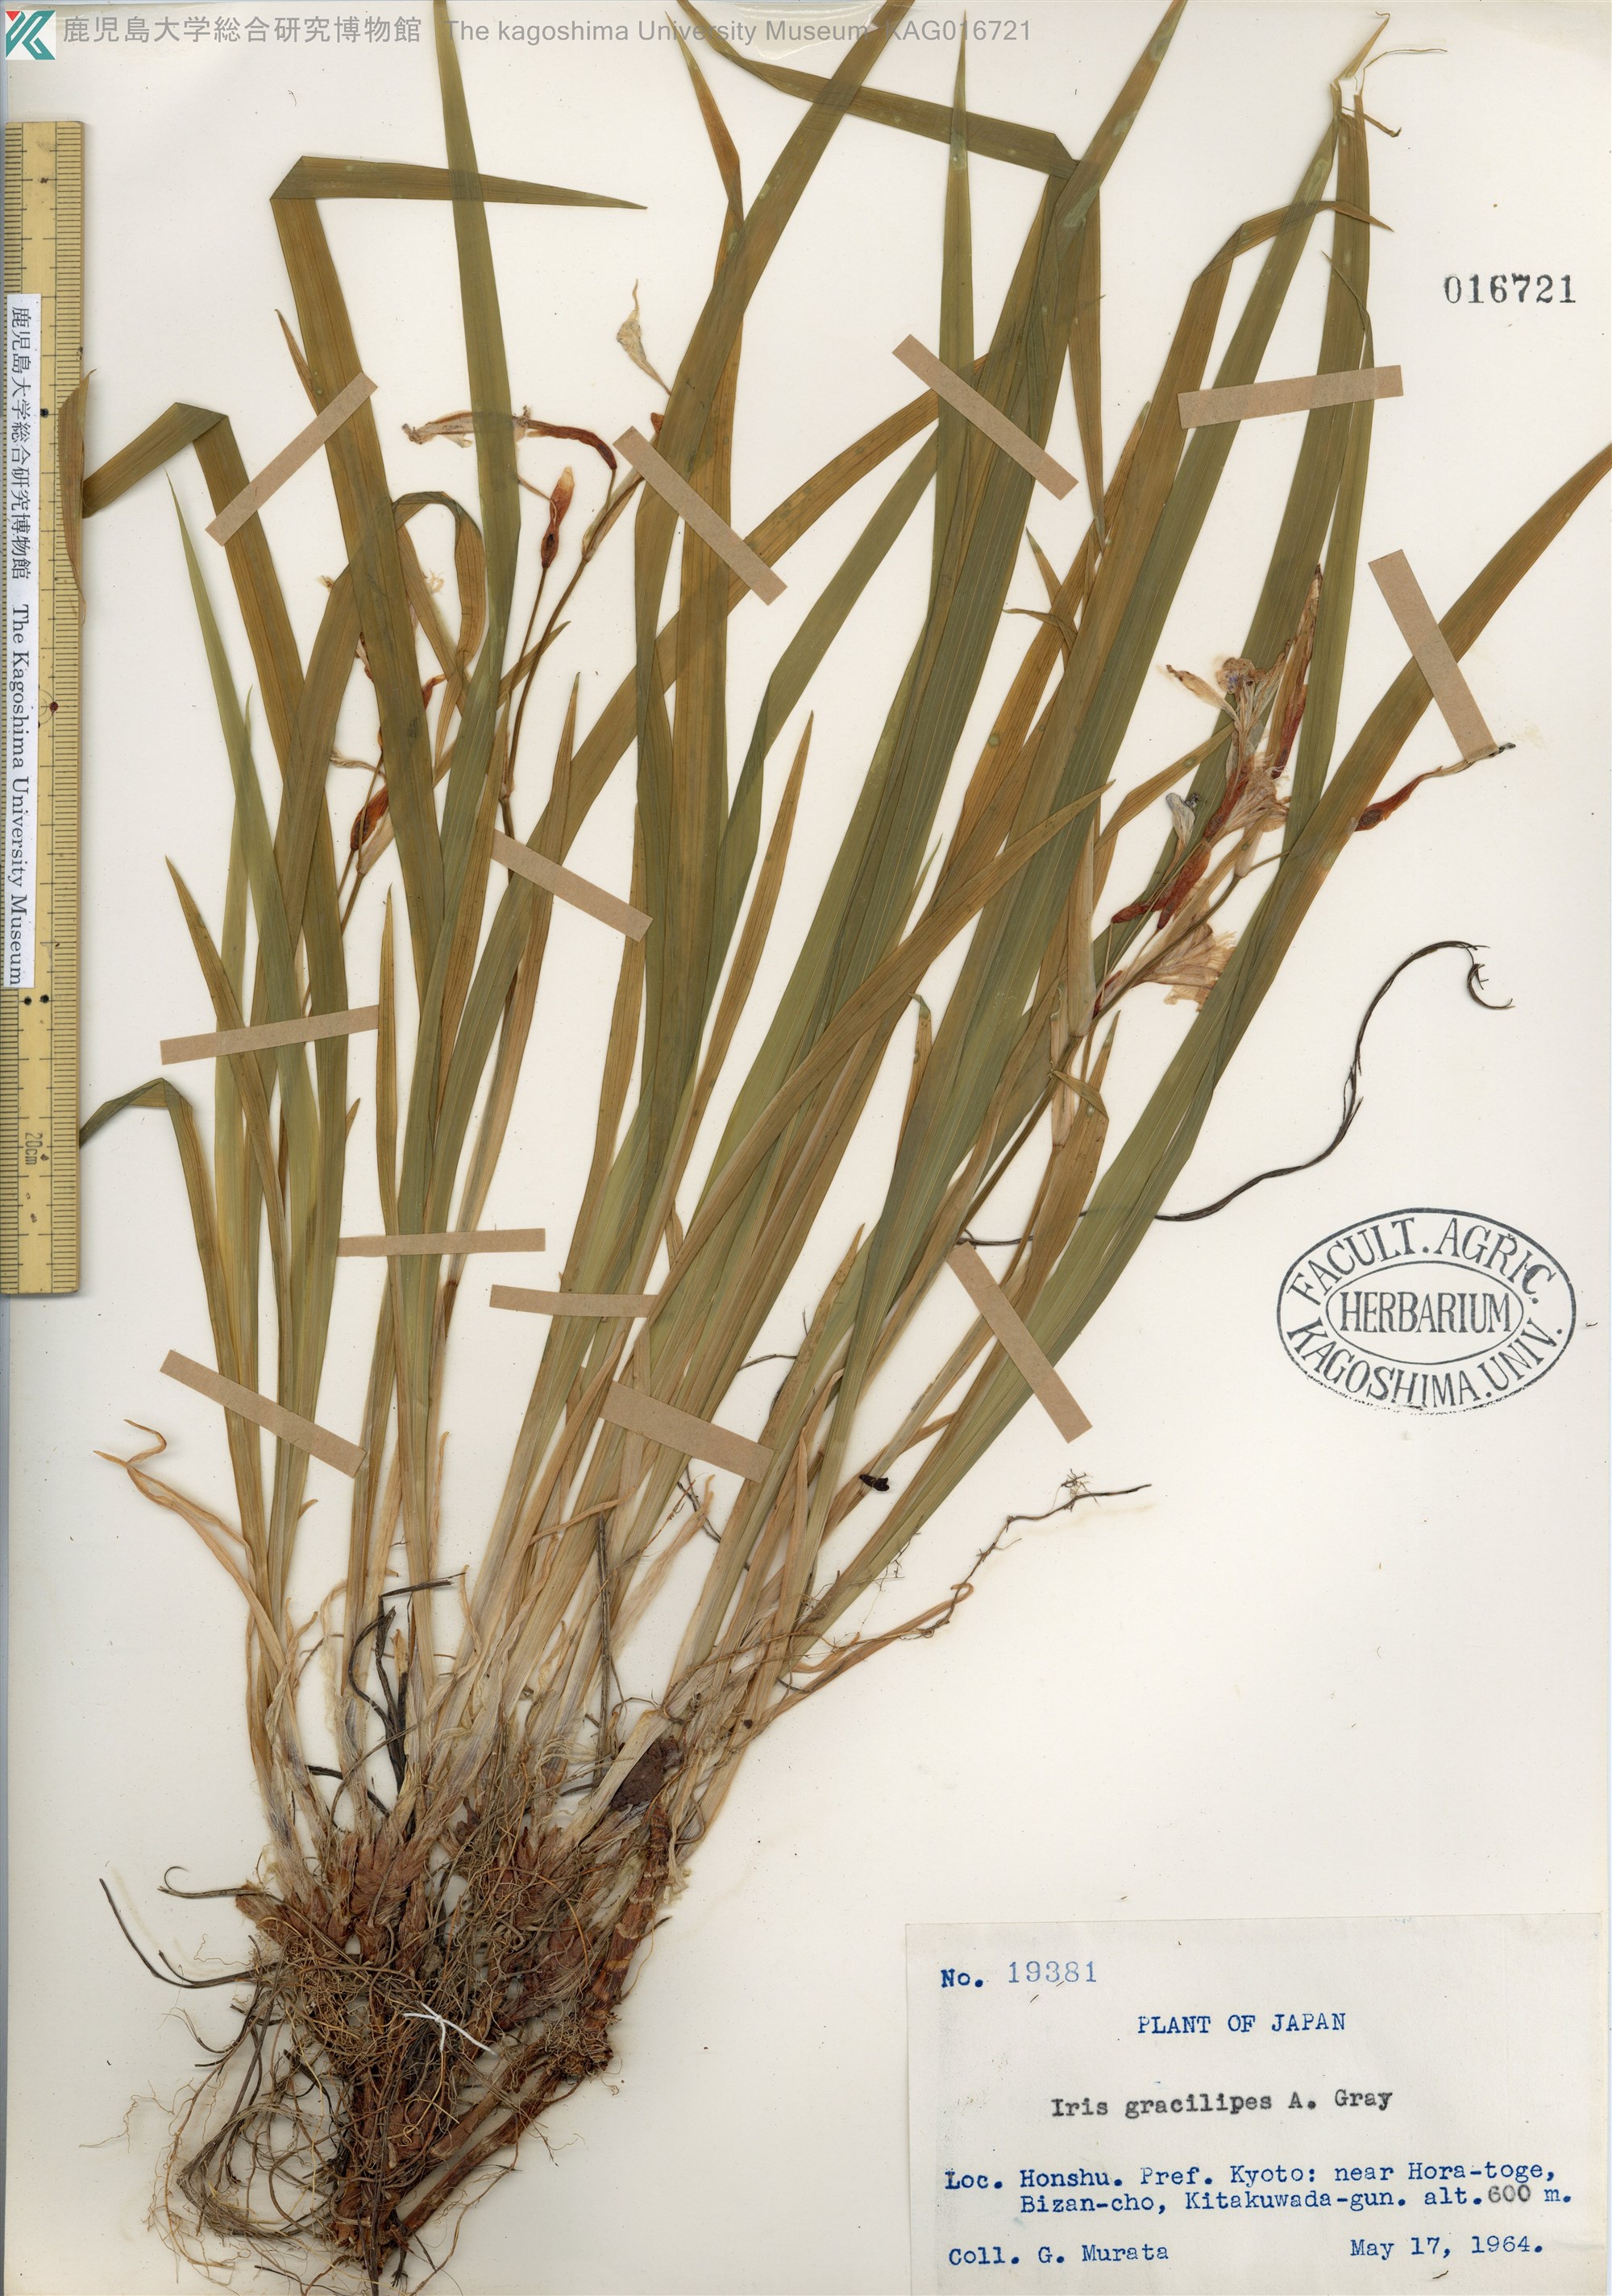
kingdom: Plantae
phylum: Tracheophyta
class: Liliopsida
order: Asparagales
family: Iridaceae
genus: Iris
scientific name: Iris gracilipes
